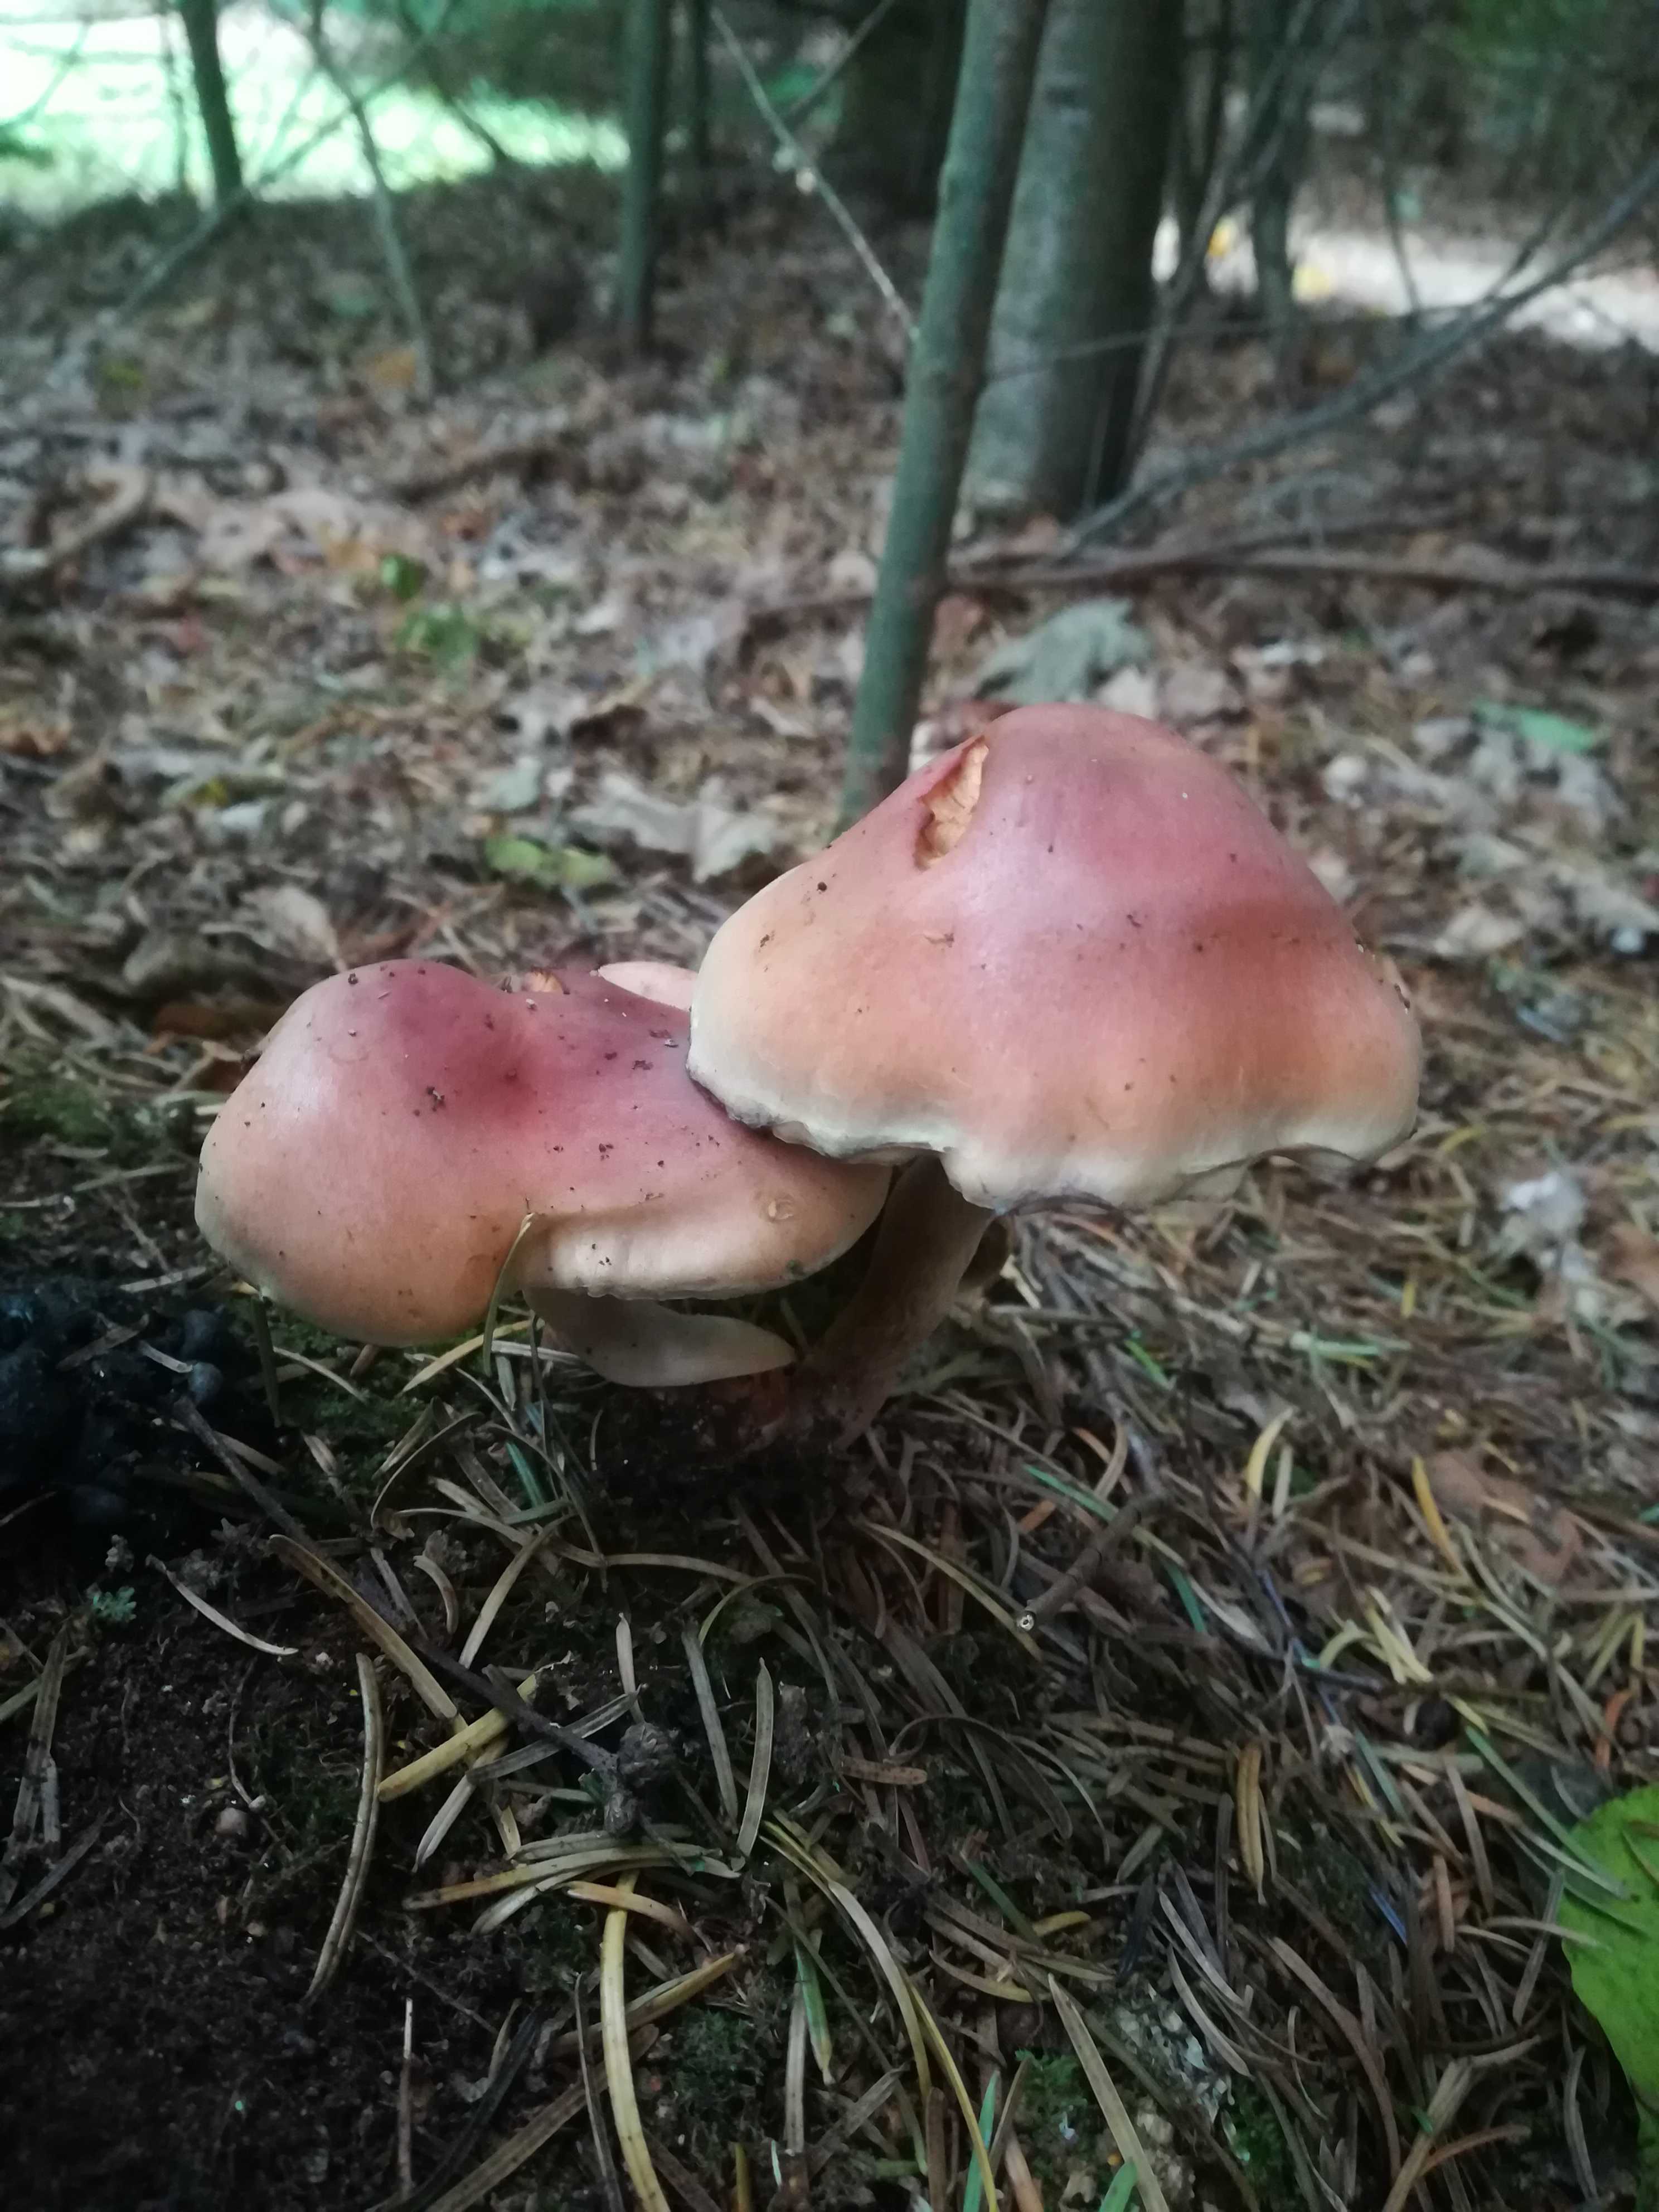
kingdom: Fungi
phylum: Basidiomycota
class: Agaricomycetes
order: Agaricales
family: Strophariaceae
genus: Hypholoma
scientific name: Hypholoma lateritium
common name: teglrød svovlhat
